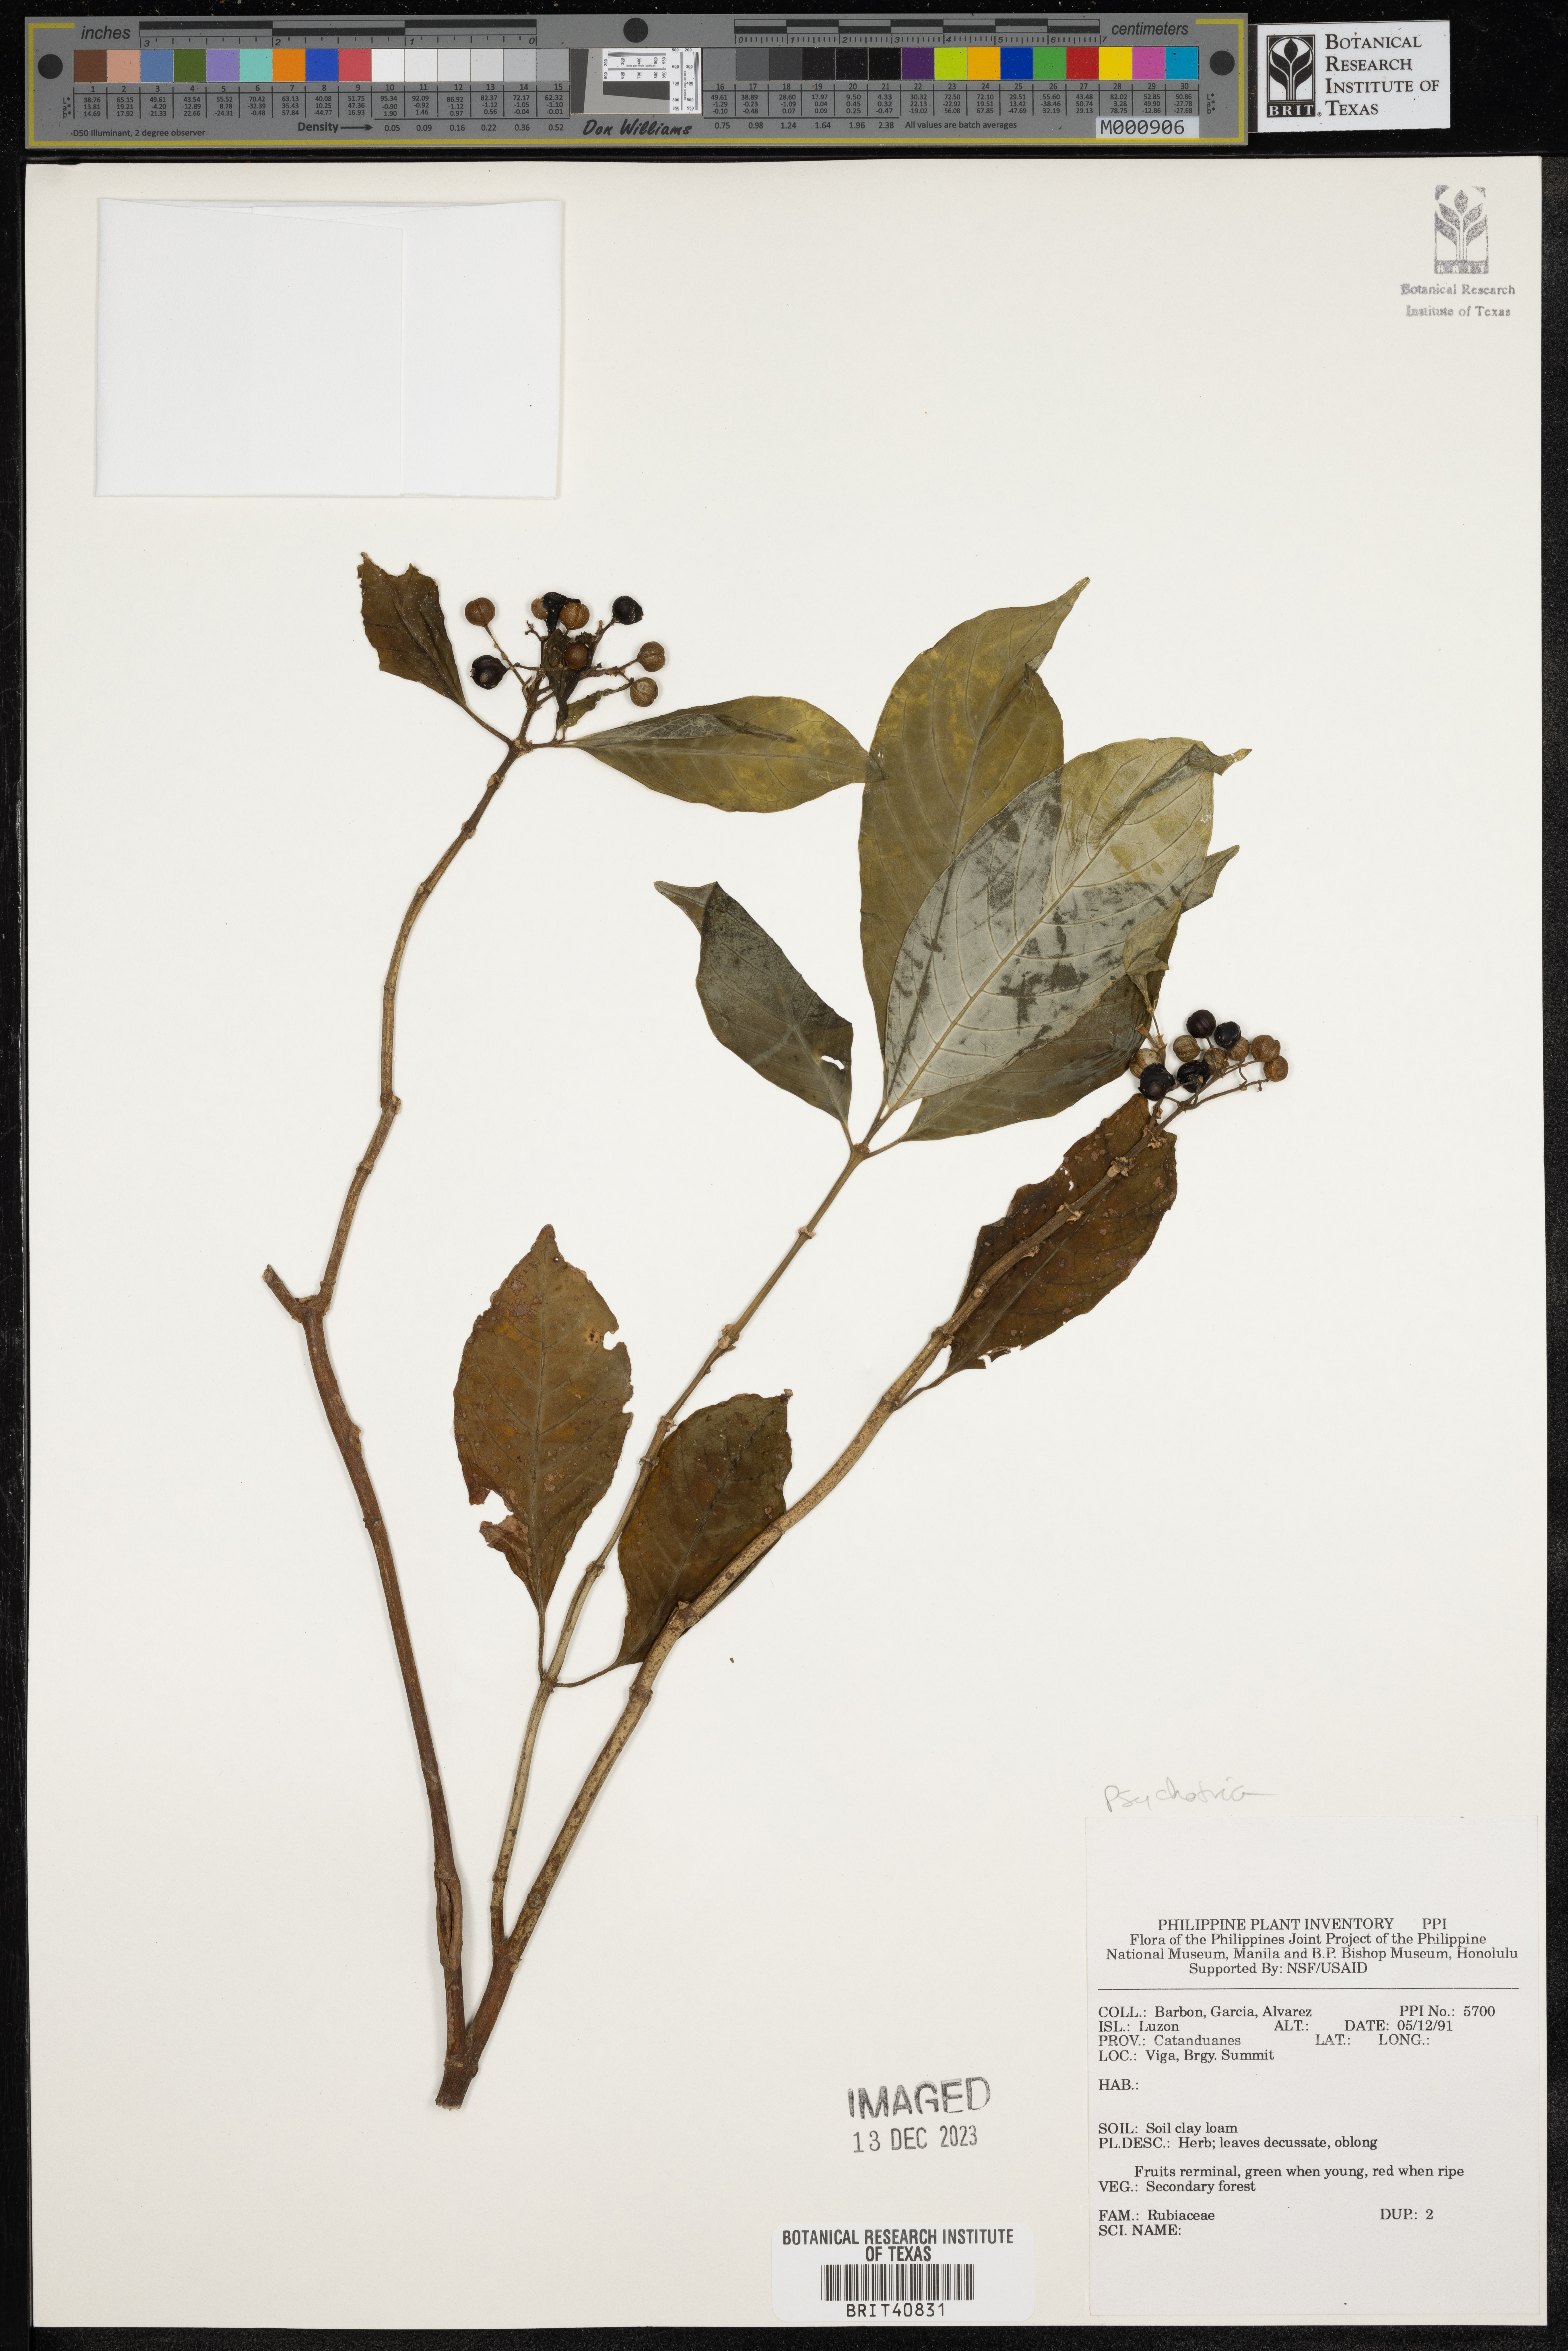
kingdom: Plantae
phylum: Tracheophyta
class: Magnoliopsida
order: Gentianales
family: Rubiaceae
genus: Psychotria
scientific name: Psychotria
